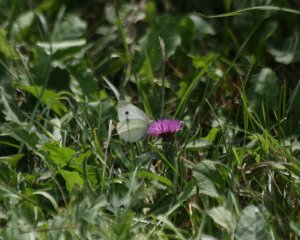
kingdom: Animalia
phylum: Arthropoda
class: Insecta
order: Lepidoptera
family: Pieridae
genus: Pieris
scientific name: Pieris rapae
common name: Cabbage White
